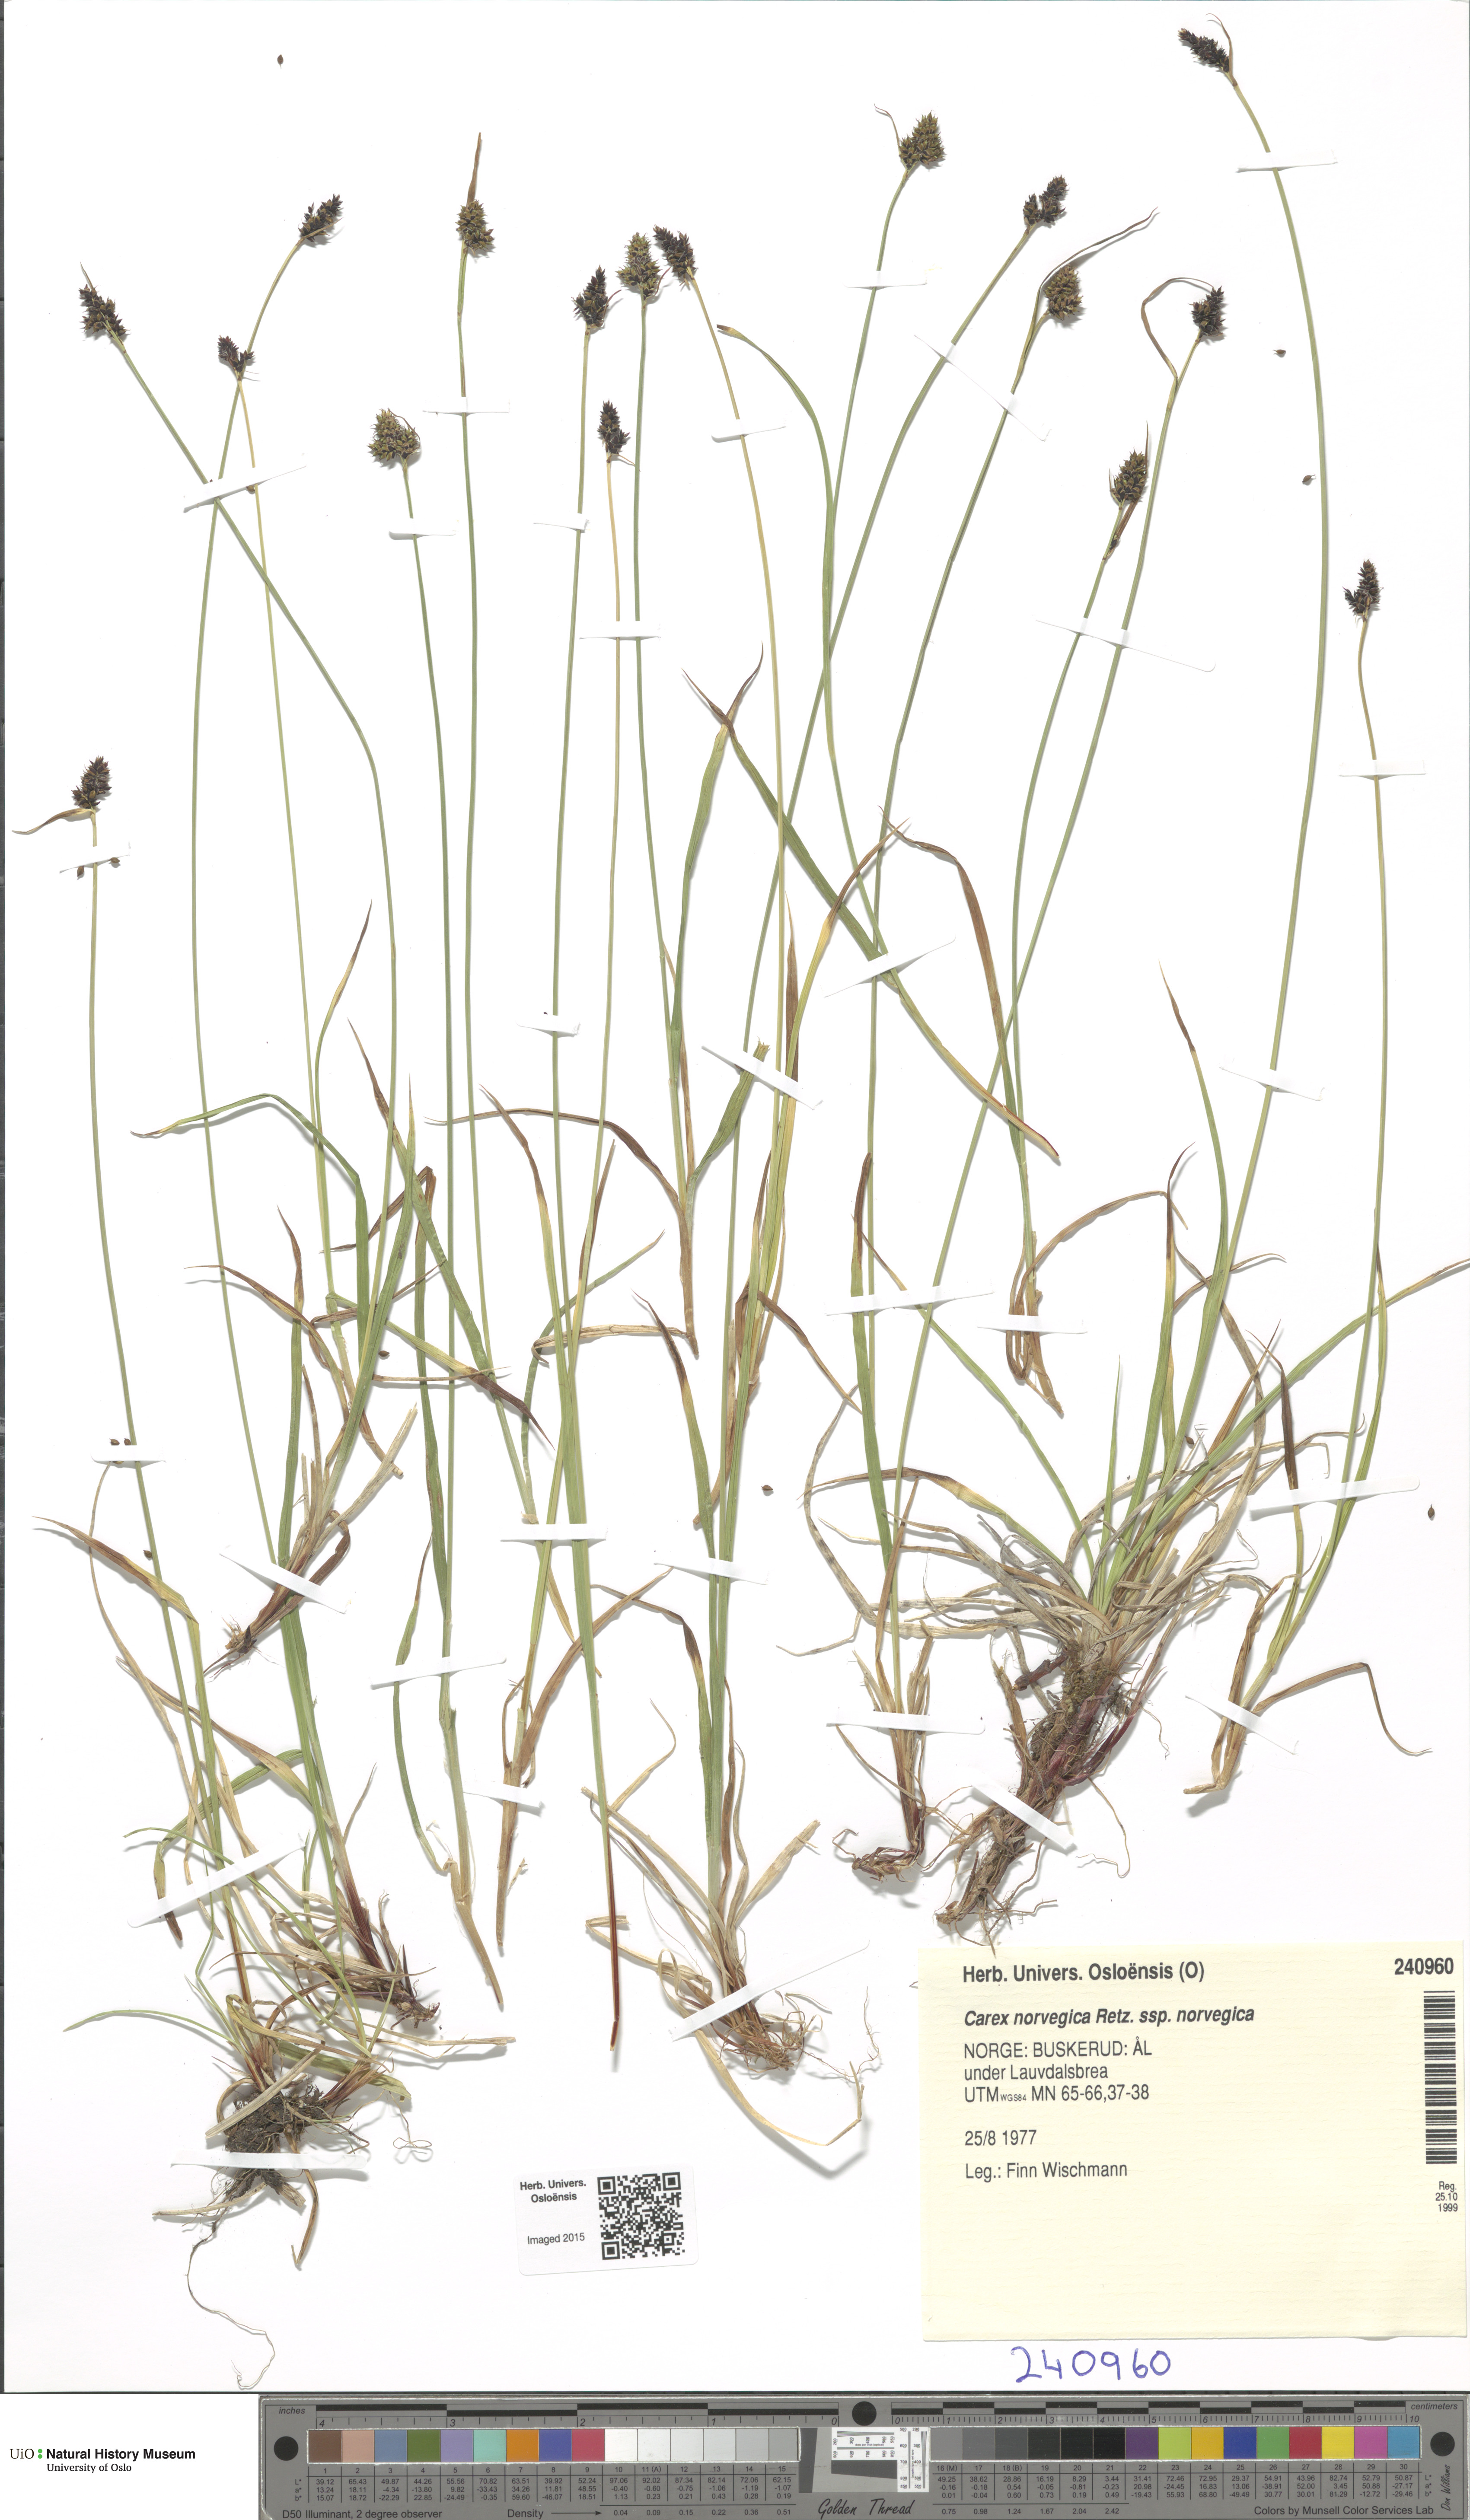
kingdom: Plantae
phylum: Tracheophyta
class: Liliopsida
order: Poales
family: Cyperaceae
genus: Carex
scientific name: Carex norvegica
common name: Close-headed alpine-sedge
